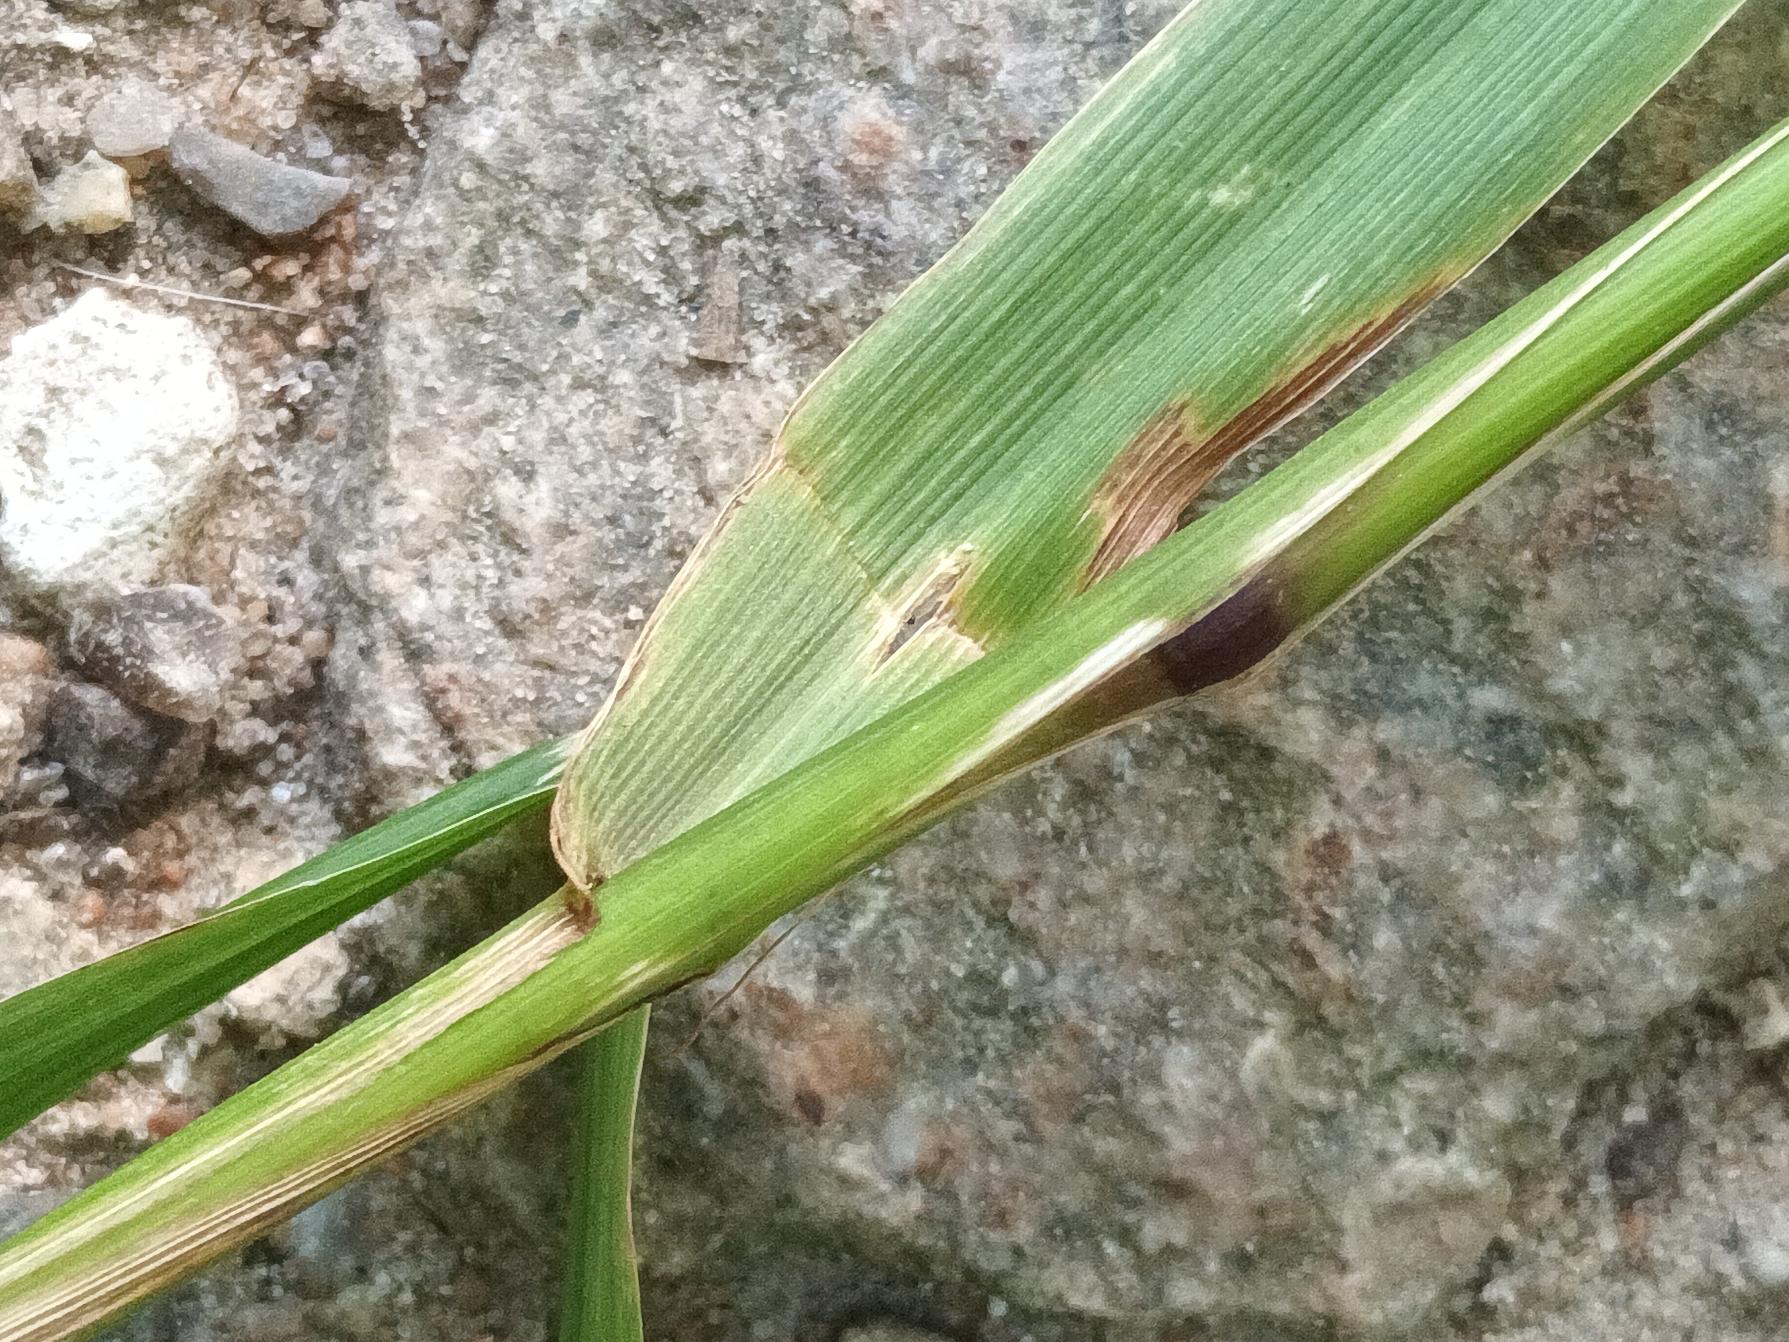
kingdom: Plantae
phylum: Tracheophyta
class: Liliopsida
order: Poales
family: Poaceae
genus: Lolium
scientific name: Lolium giganteum
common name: Kæmpe-svingel
